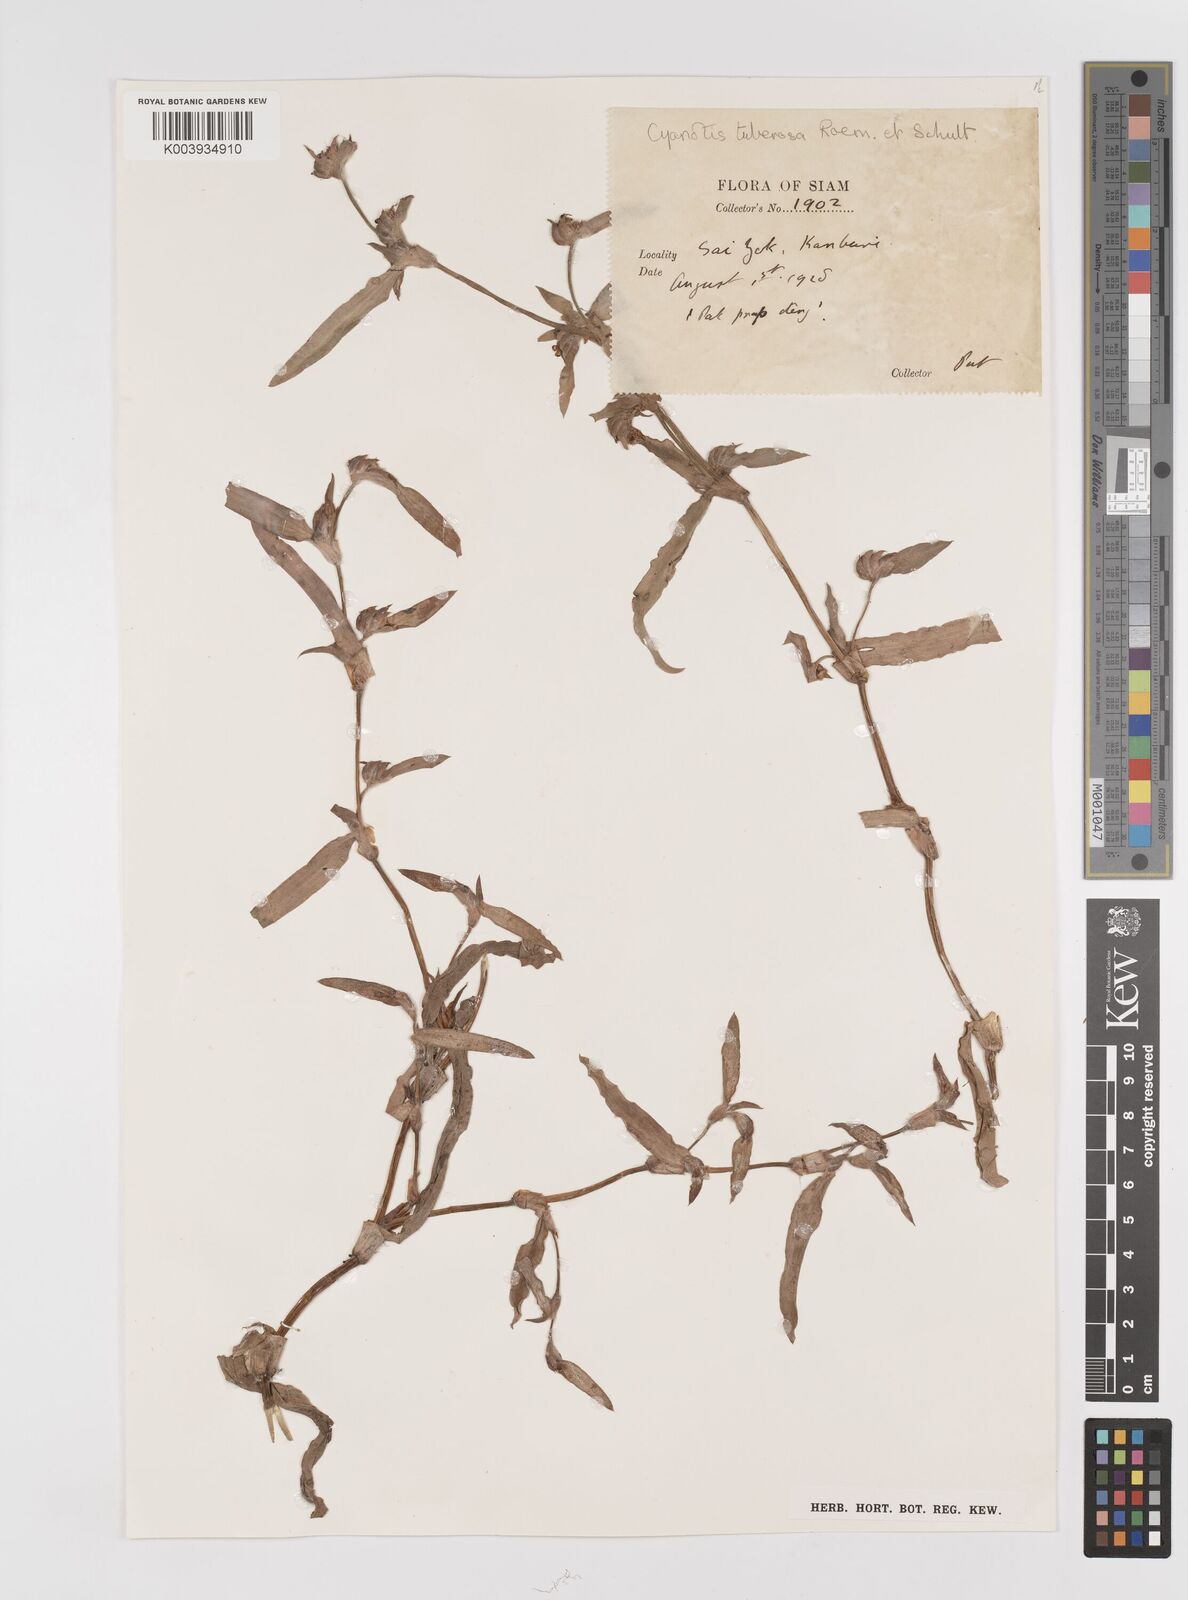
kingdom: Plantae
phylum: Tracheophyta
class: Liliopsida
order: Commelinales
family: Commelinaceae
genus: Cyanotis
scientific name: Cyanotis fasciculata
